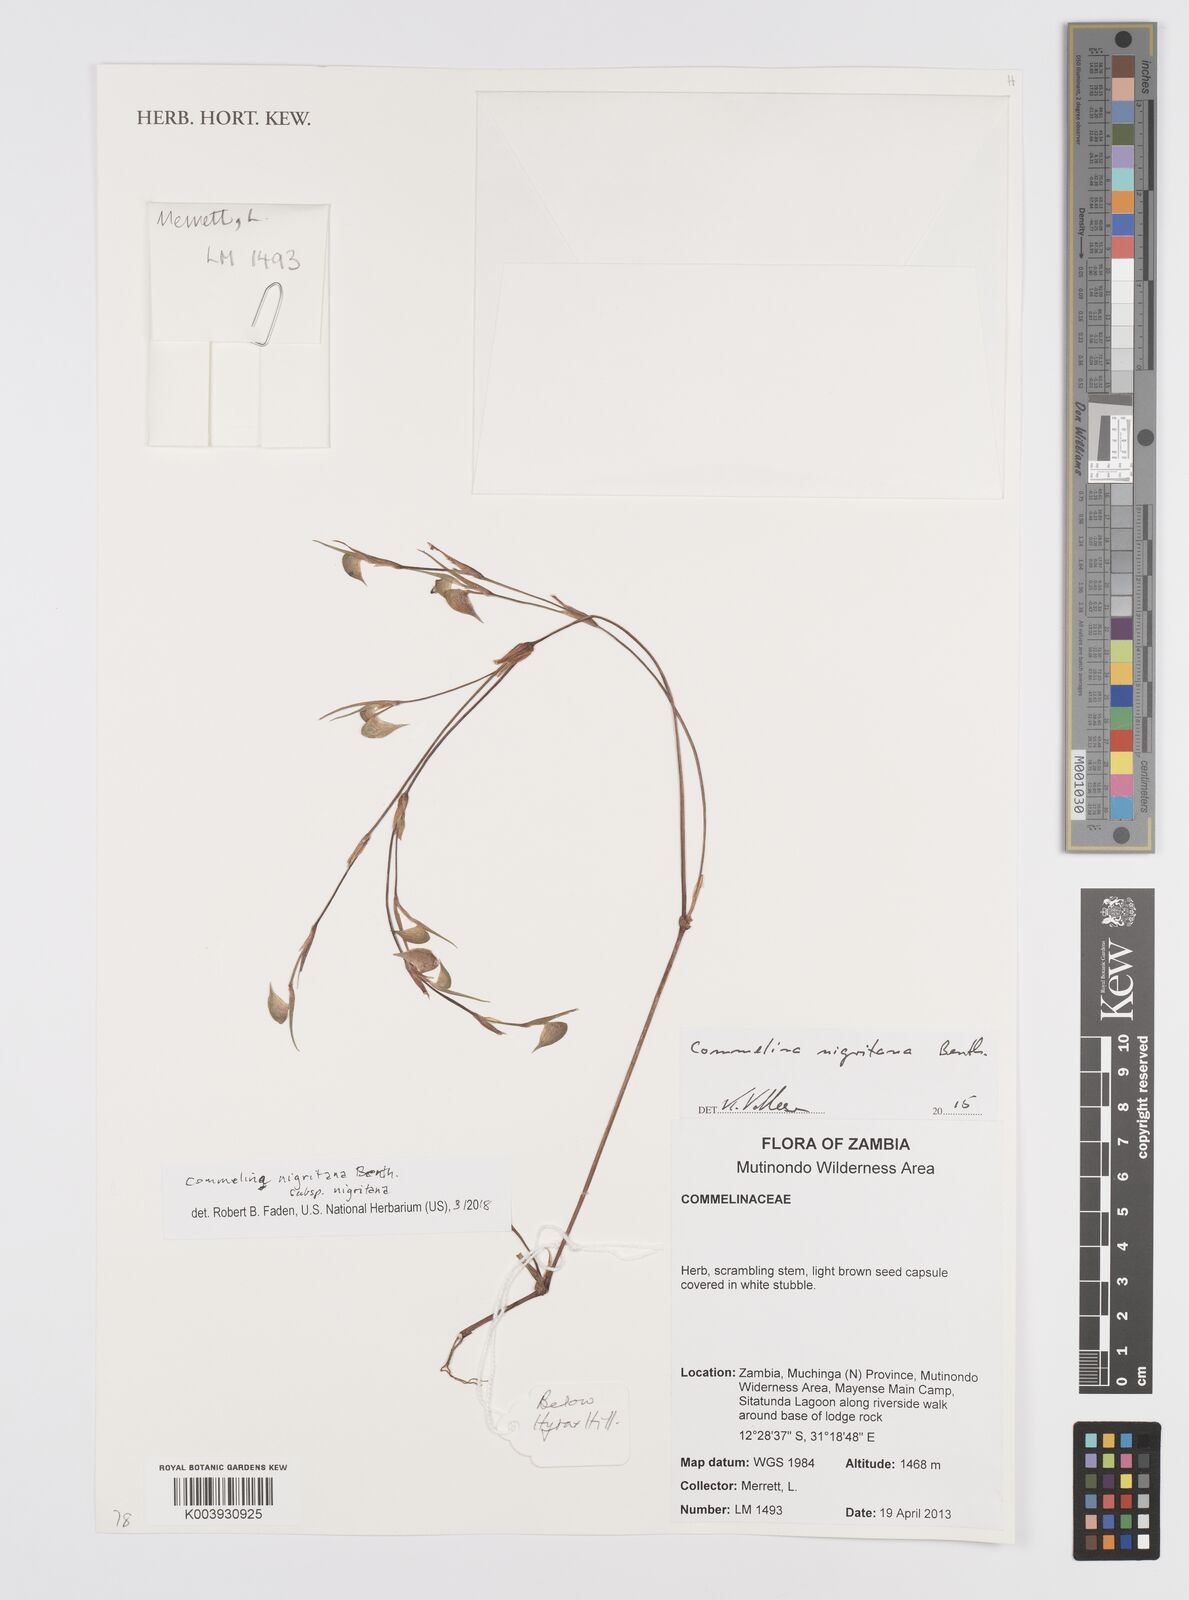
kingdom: Plantae
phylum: Tracheophyta
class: Liliopsida
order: Commelinales
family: Commelinaceae
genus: Commelina
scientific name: Commelina nigritana
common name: African dayflower
